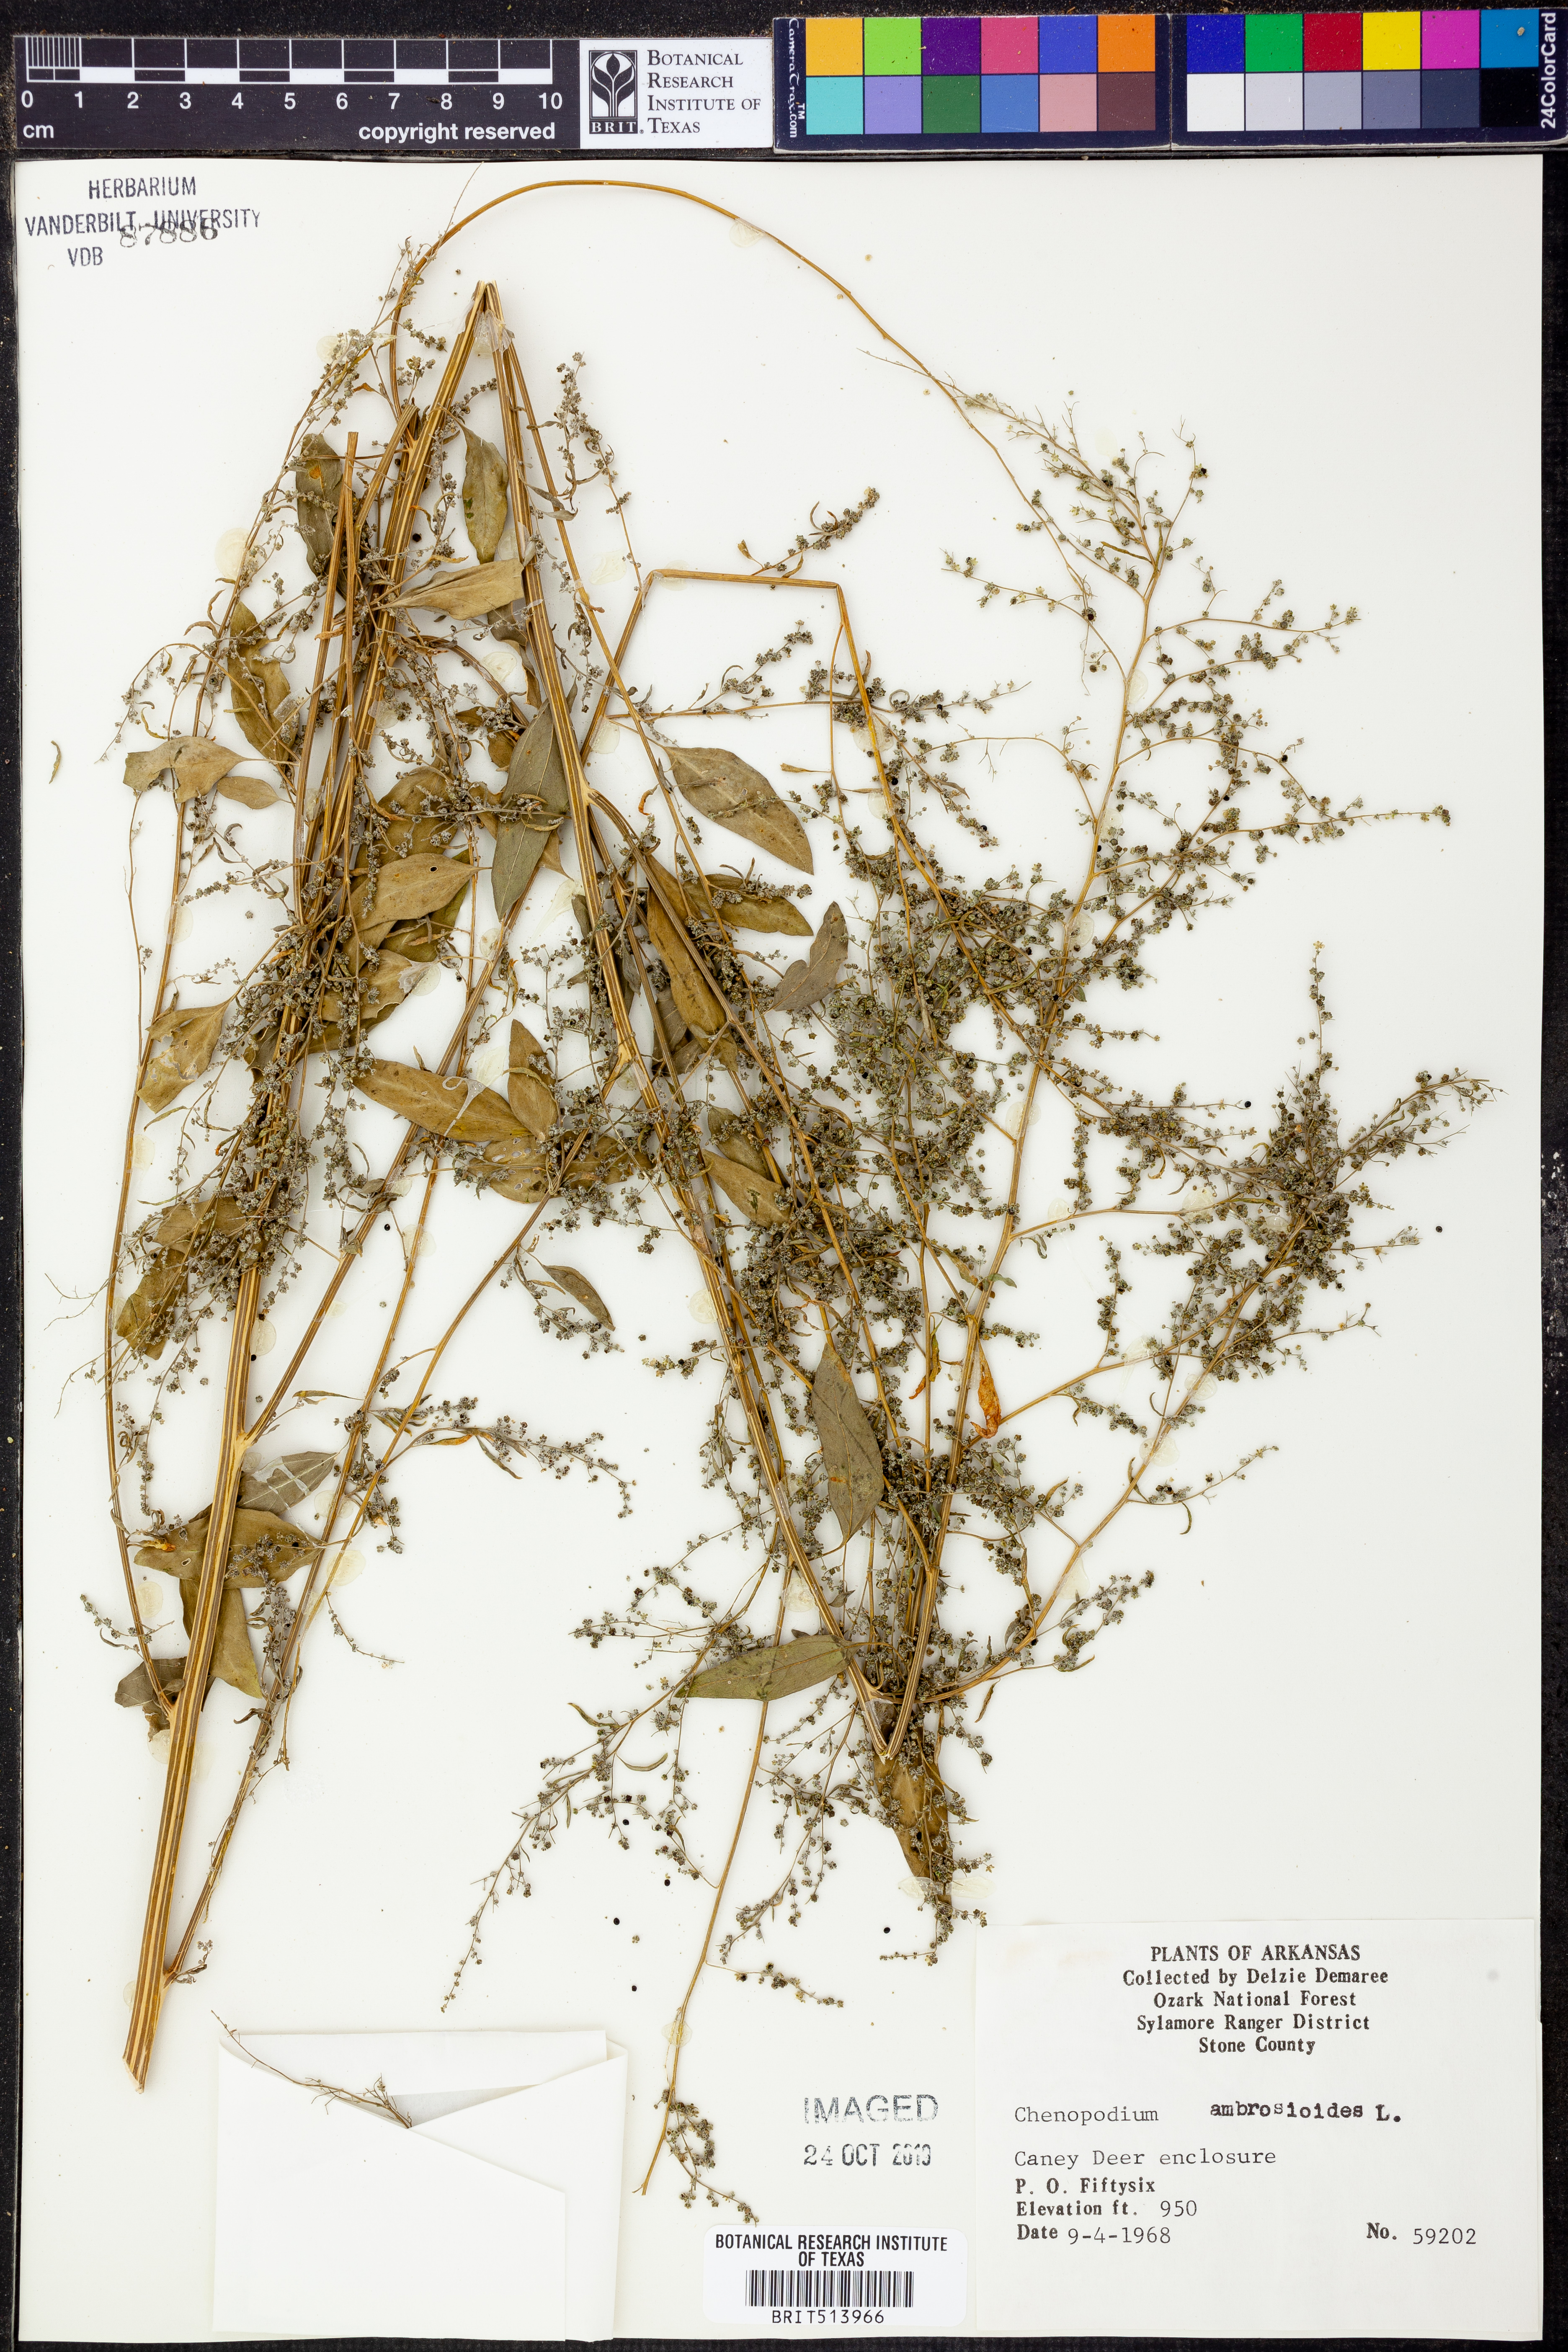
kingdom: Plantae
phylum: Tracheophyta
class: Magnoliopsida
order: Caryophyllales
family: Amaranthaceae
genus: Dysphania
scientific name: Dysphania ambrosioides
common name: Wormseed
